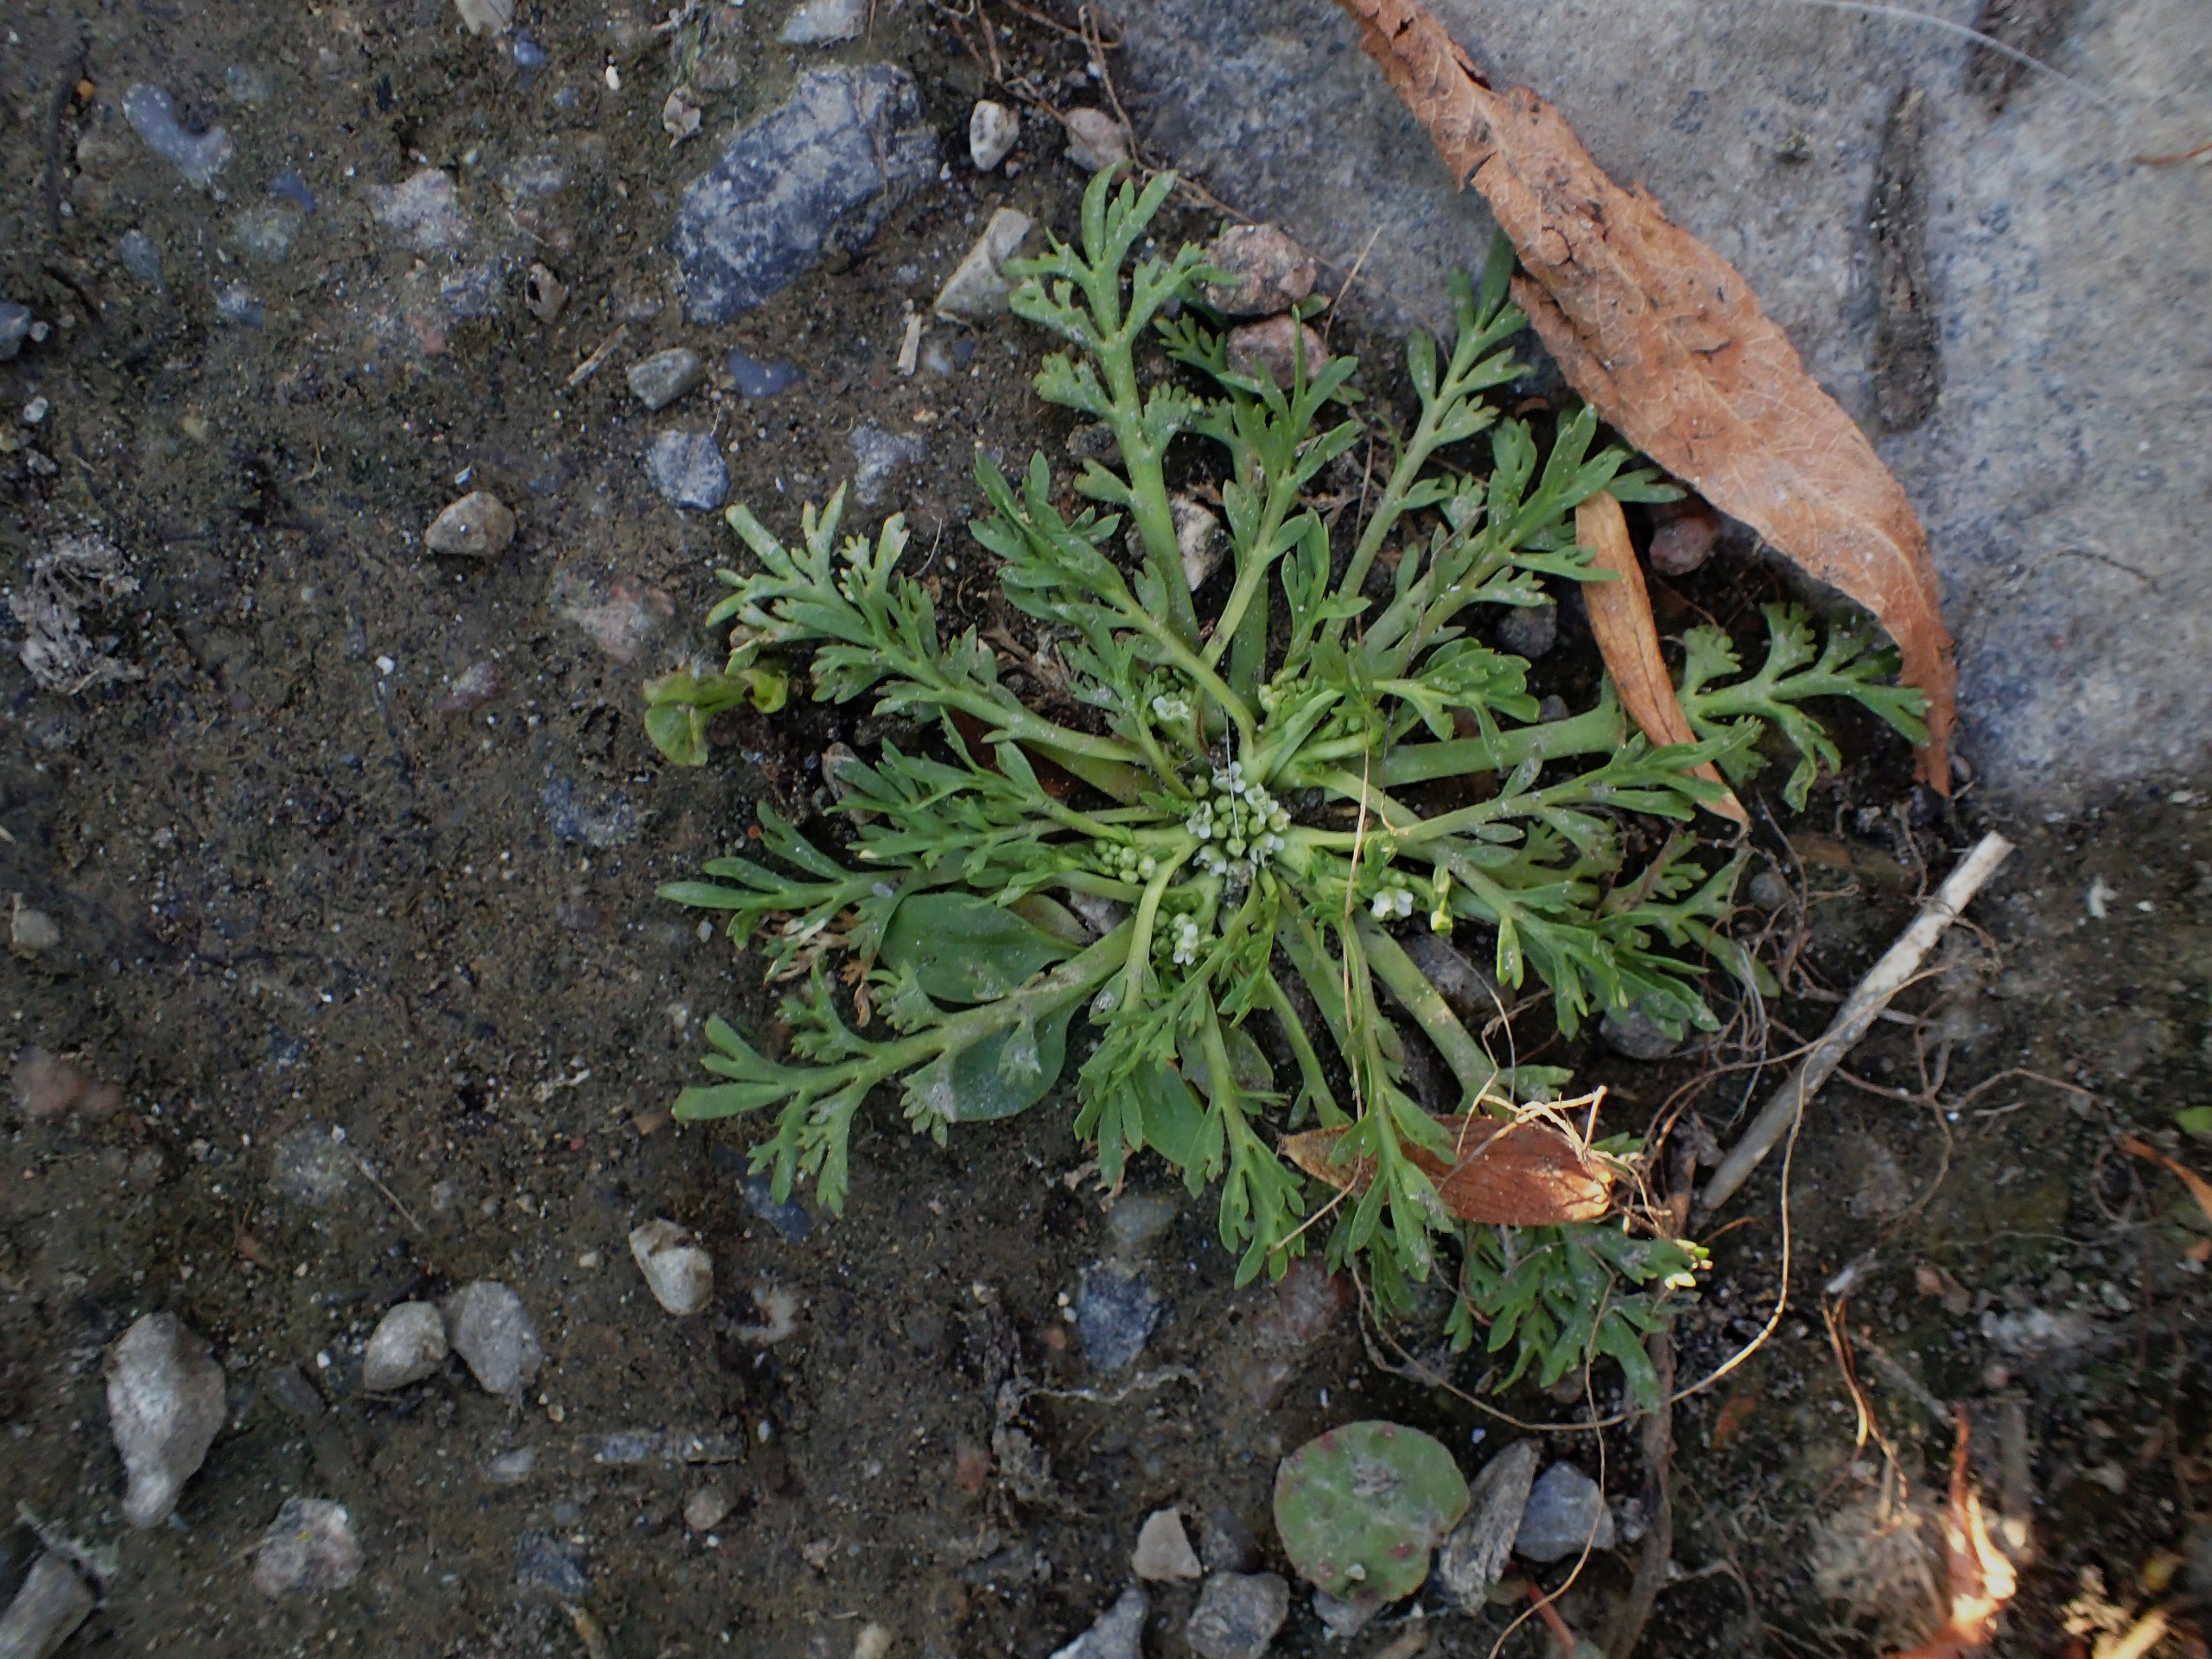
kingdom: Plantae
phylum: Tracheophyta
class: Magnoliopsida
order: Brassicales
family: Brassicaceae
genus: Lepidium
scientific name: Lepidium coronopus
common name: Ravnefod
